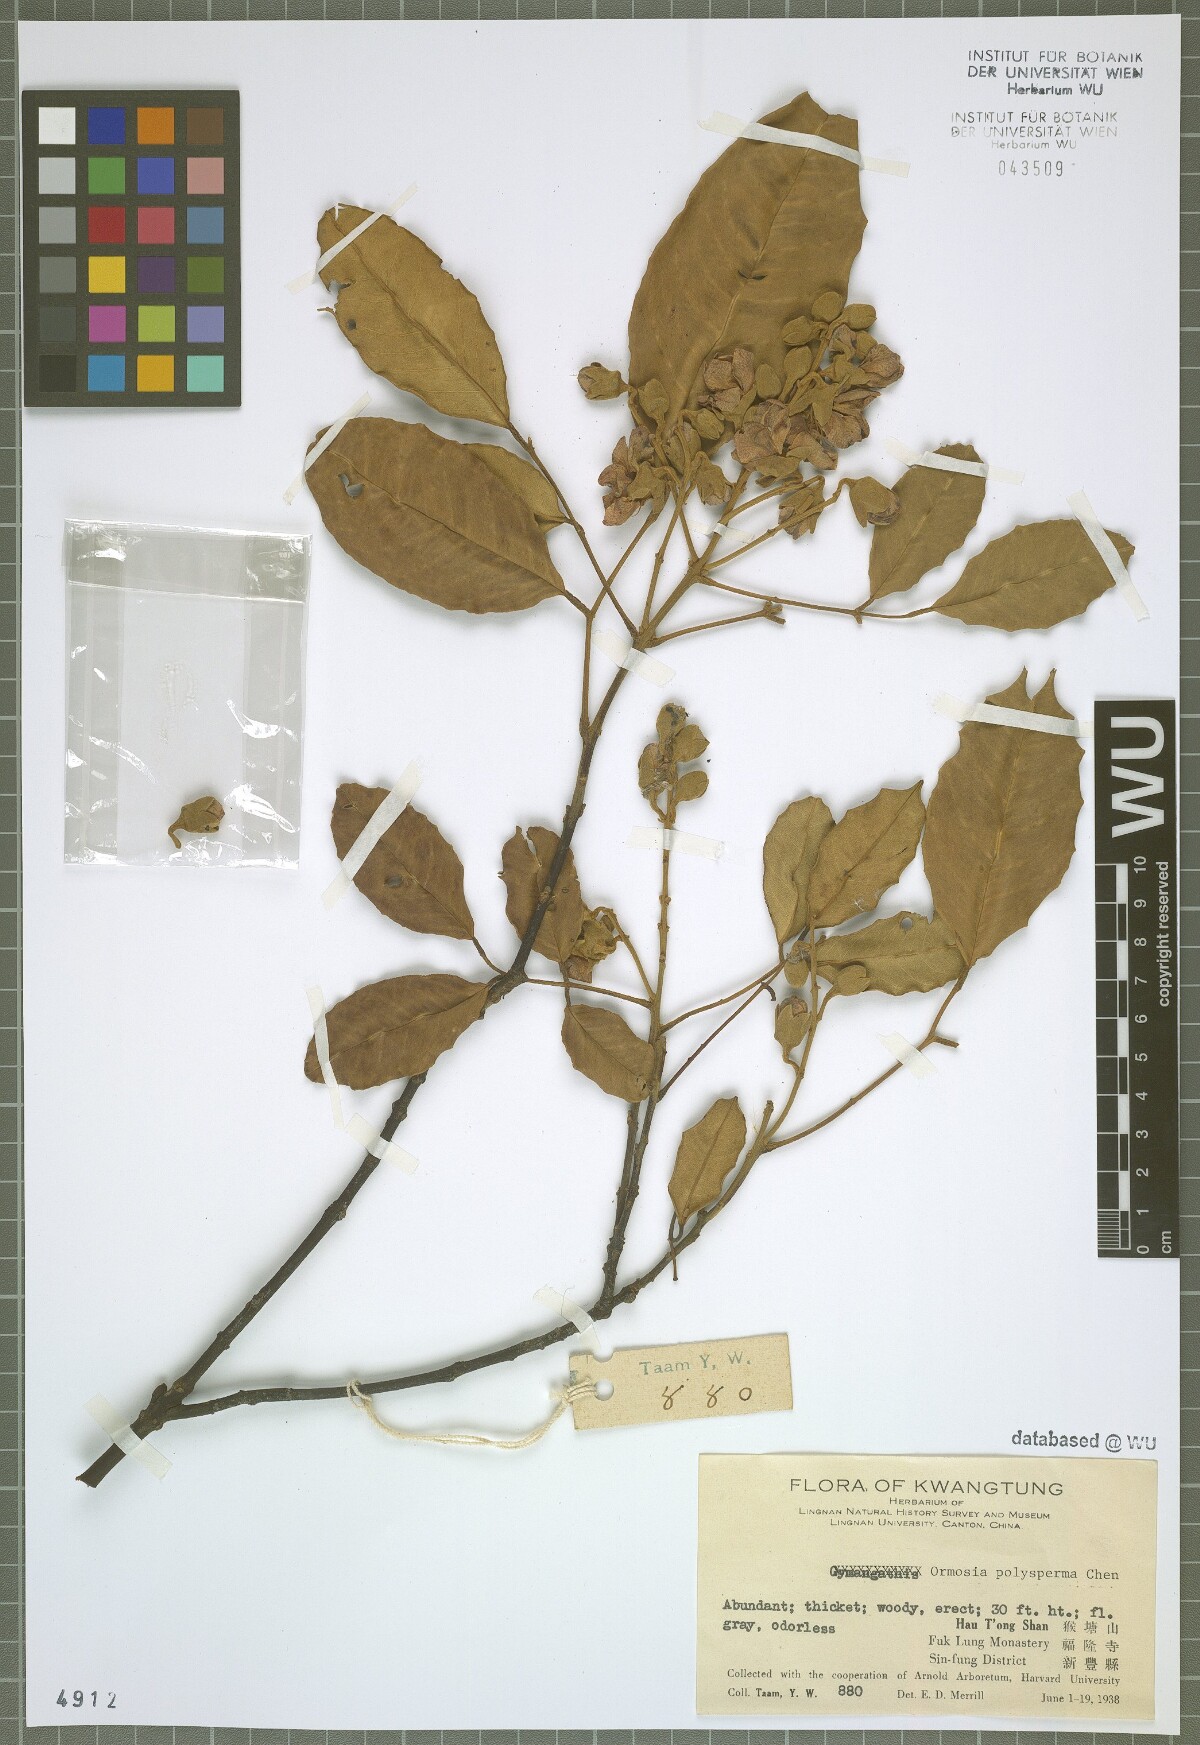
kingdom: Plantae
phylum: Tracheophyta
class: Magnoliopsida
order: Fabales
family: Fabaceae
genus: Ormosia
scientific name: Ormosia xylocarpa
